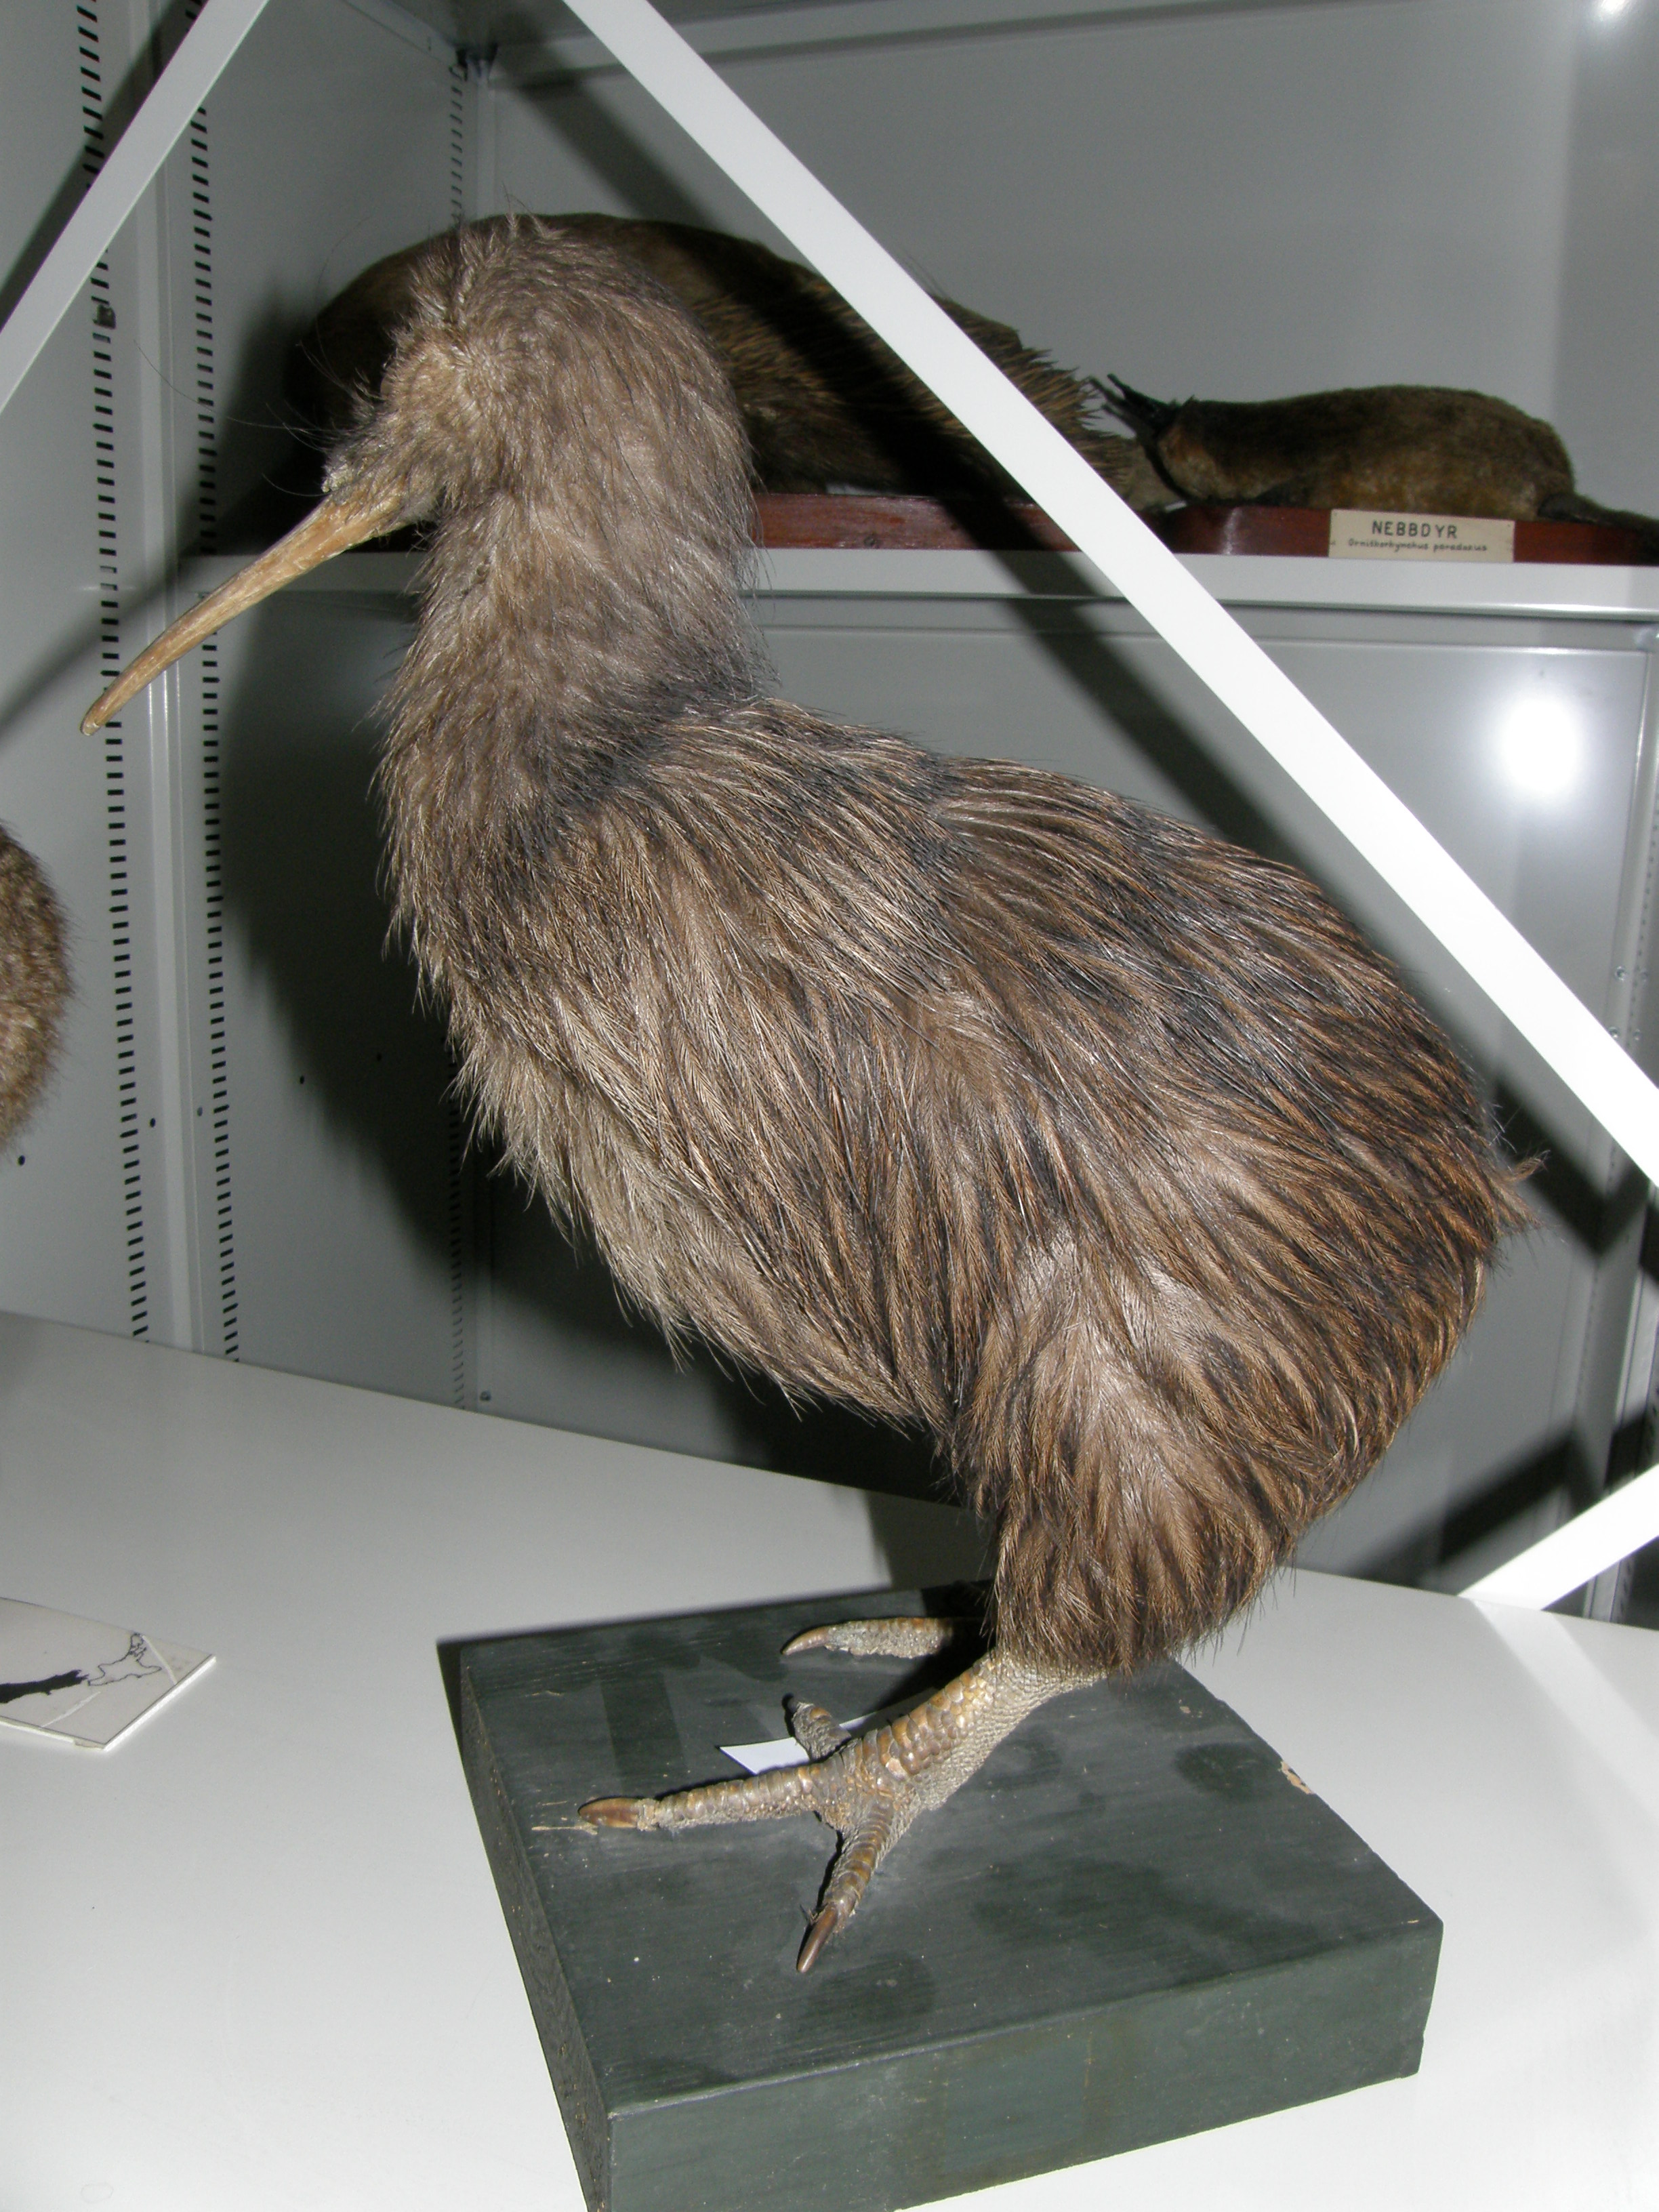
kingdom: Animalia
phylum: Chordata
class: Aves
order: Apterygiformes
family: Apterygidae
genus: Apteryx
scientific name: Apteryx australis
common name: Southern brown kiwi
